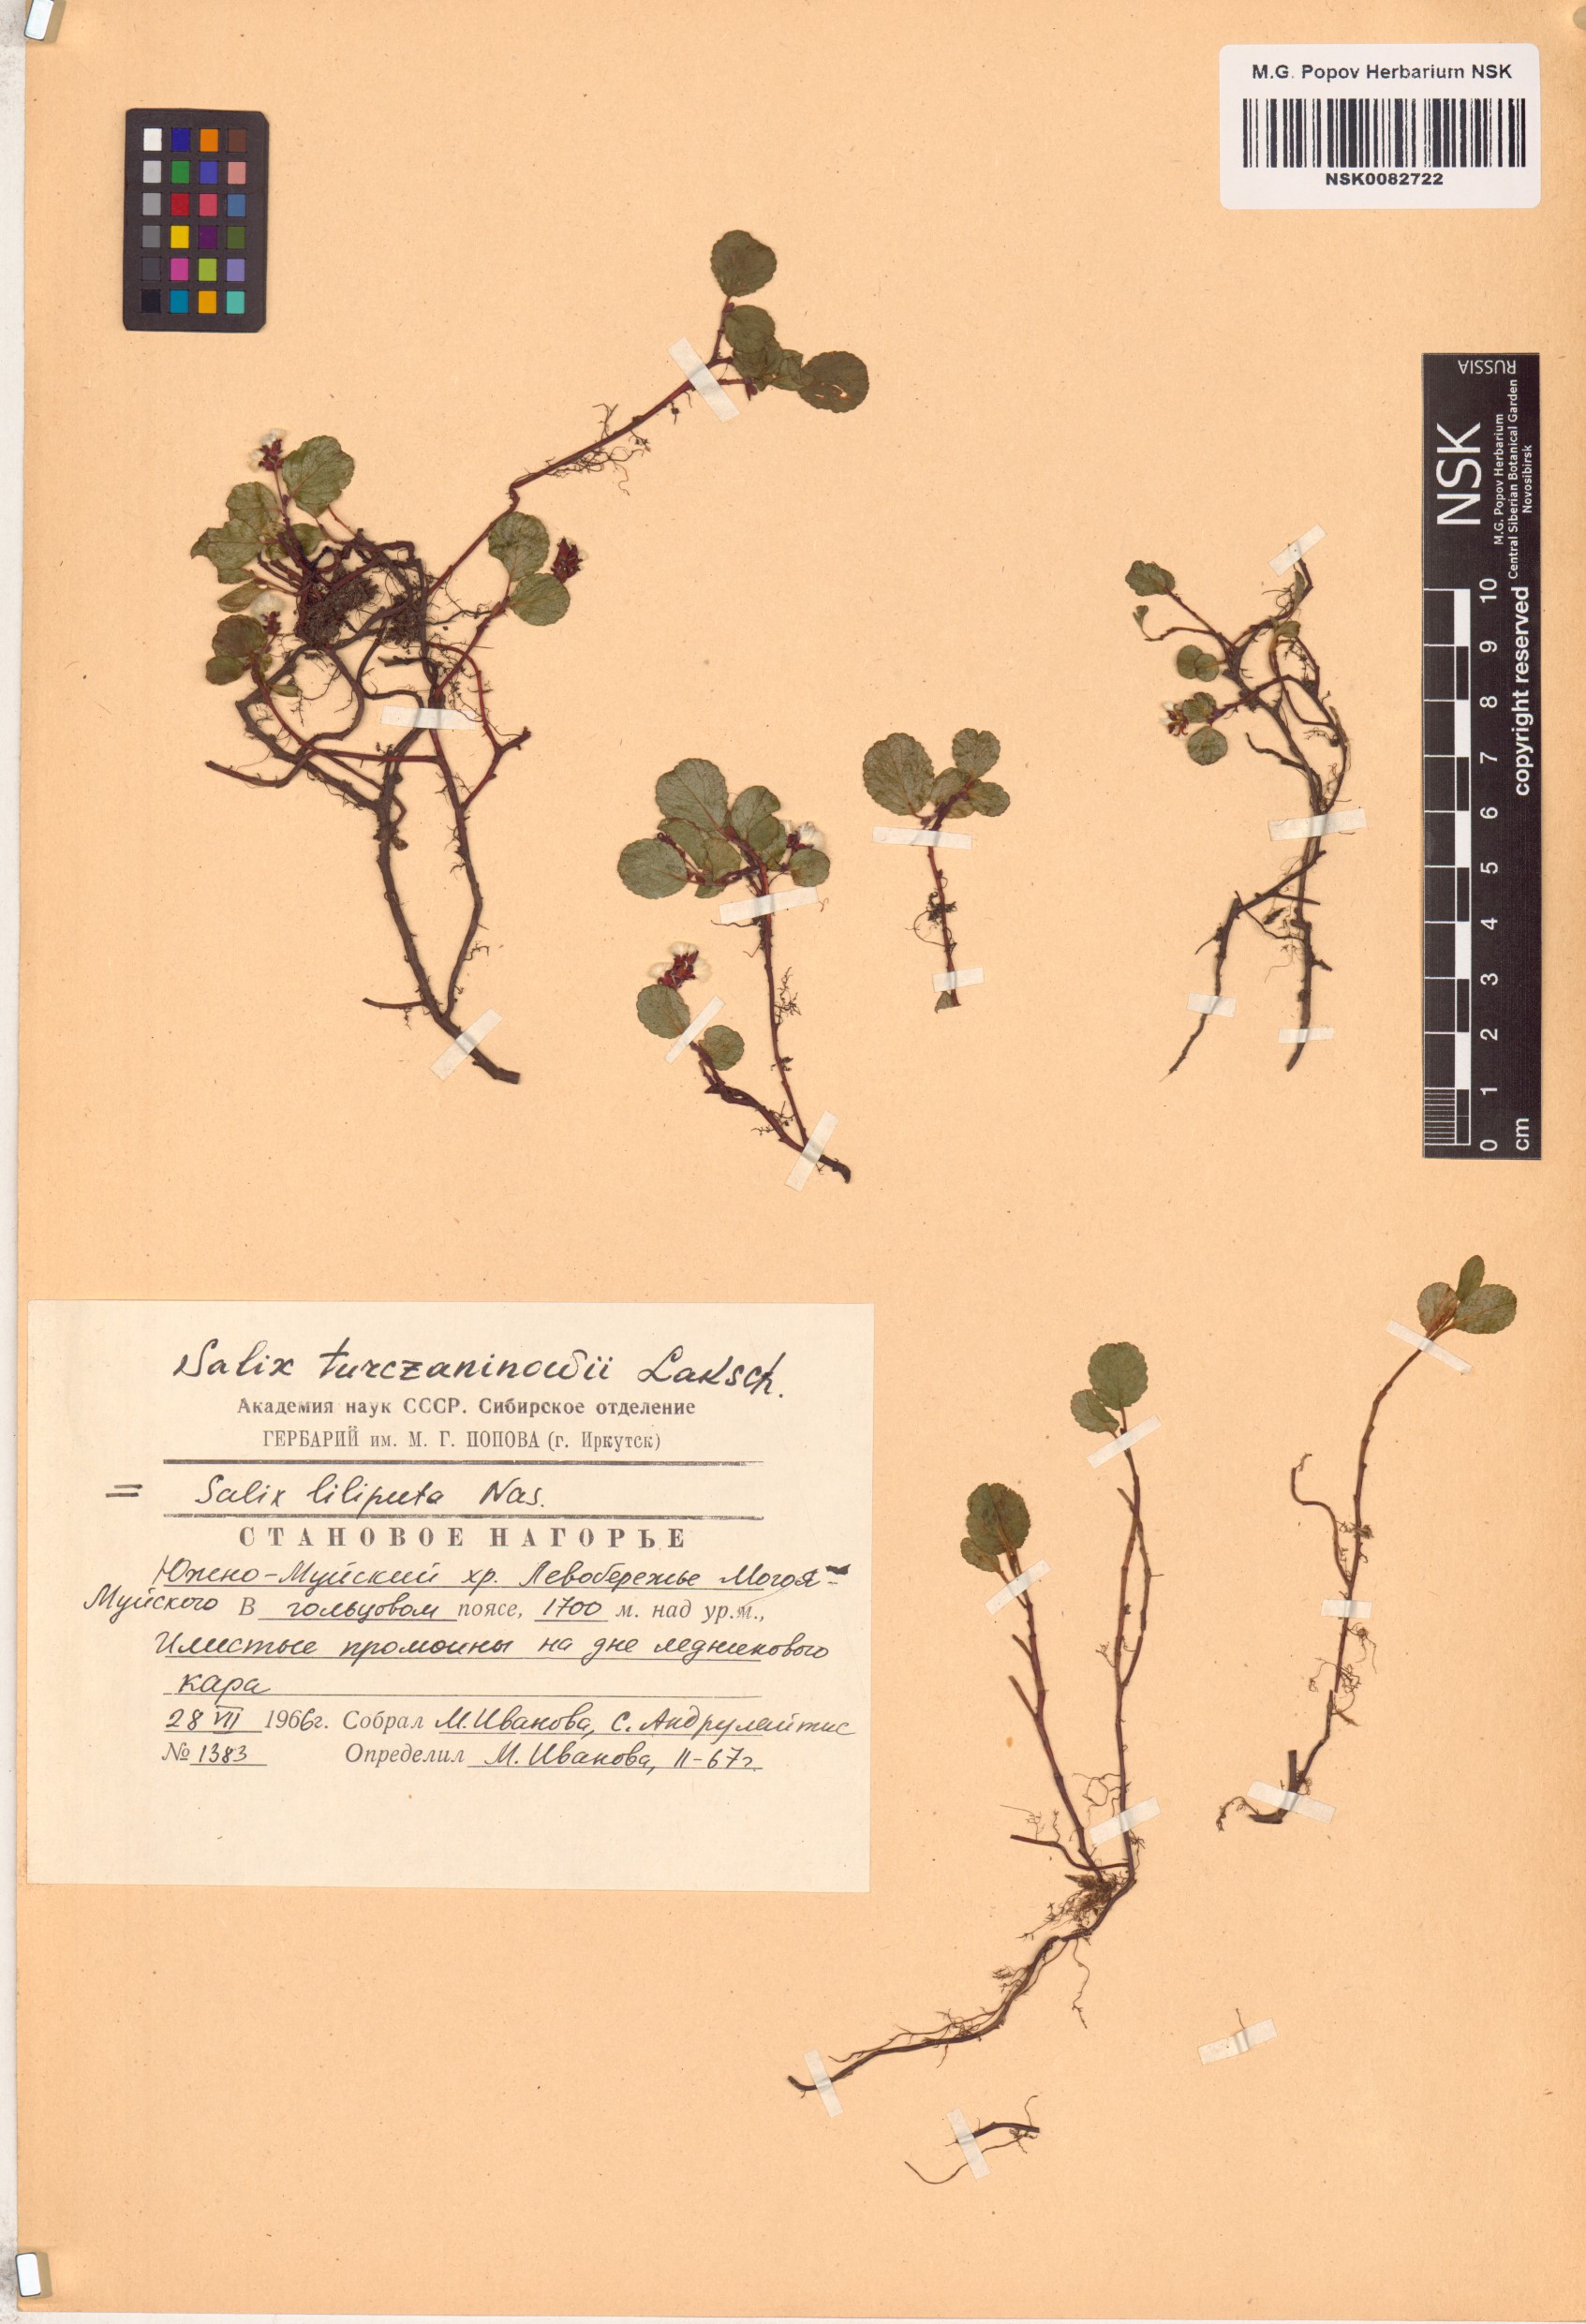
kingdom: Plantae
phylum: Tracheophyta
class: Magnoliopsida
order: Malpighiales
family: Salicaceae
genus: Salix
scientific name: Salix turczaninowii
